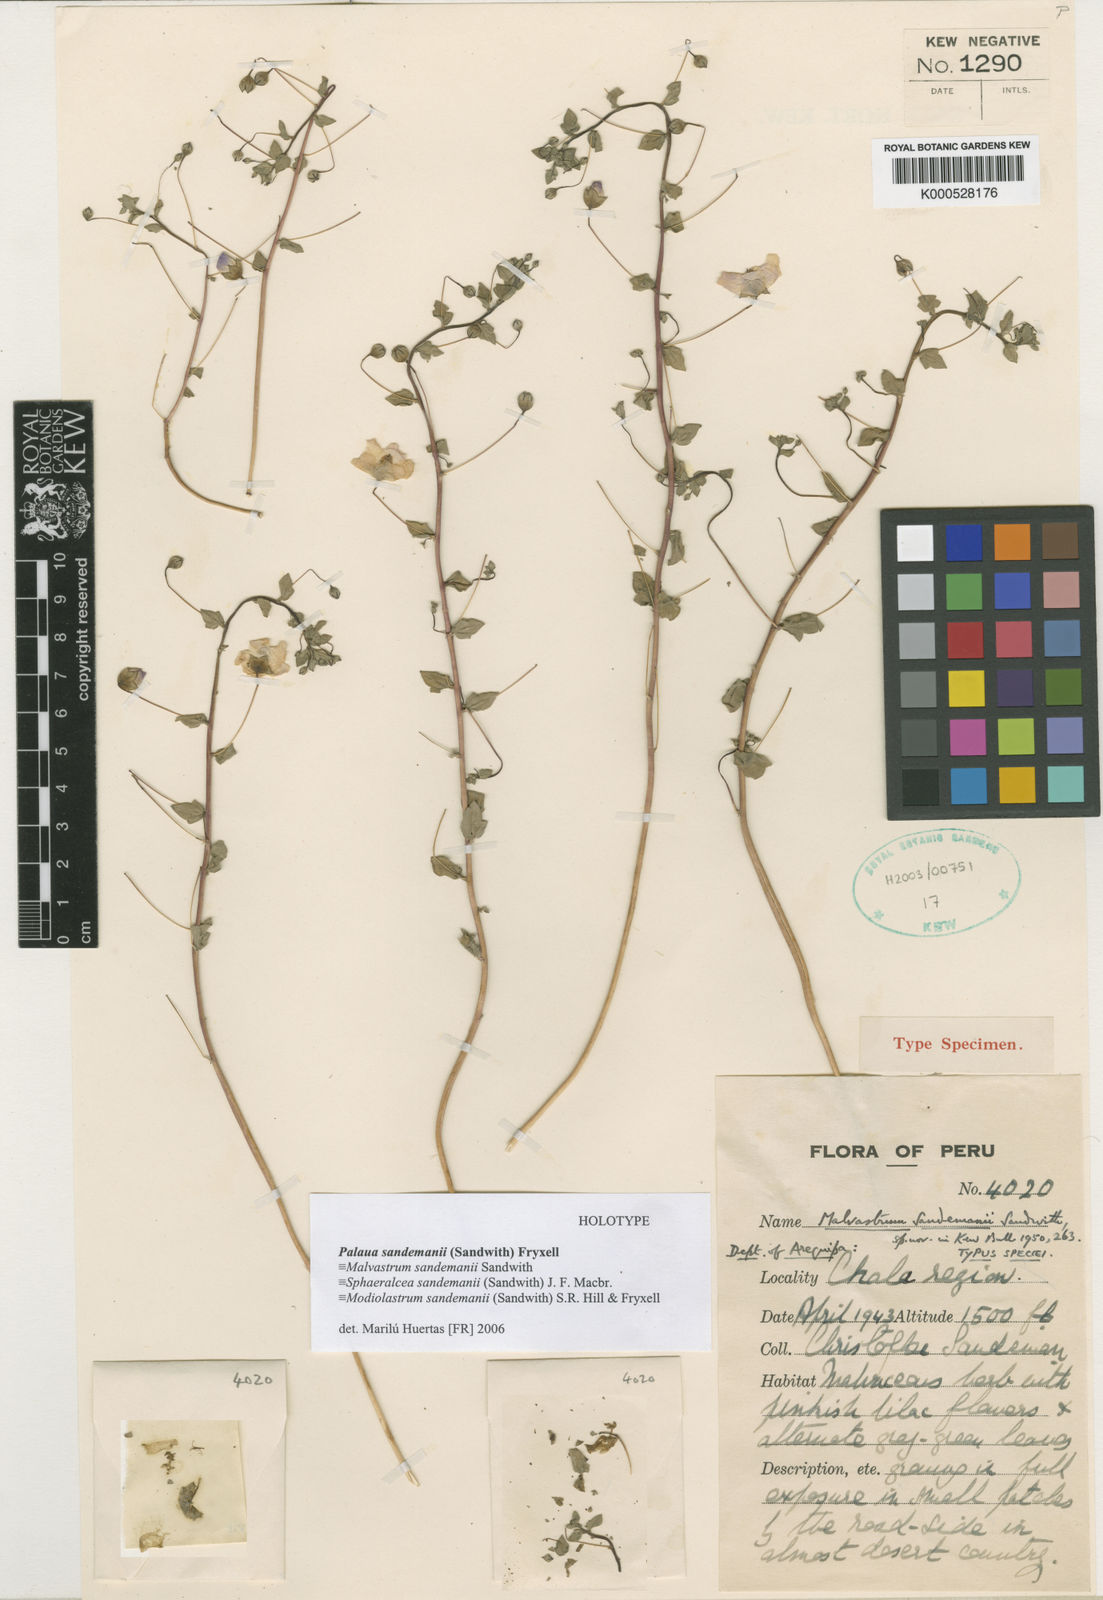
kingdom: Plantae
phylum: Tracheophyta
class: Magnoliopsida
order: Malvales
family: Malvaceae
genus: Palaua
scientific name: Palaua sandemanii
